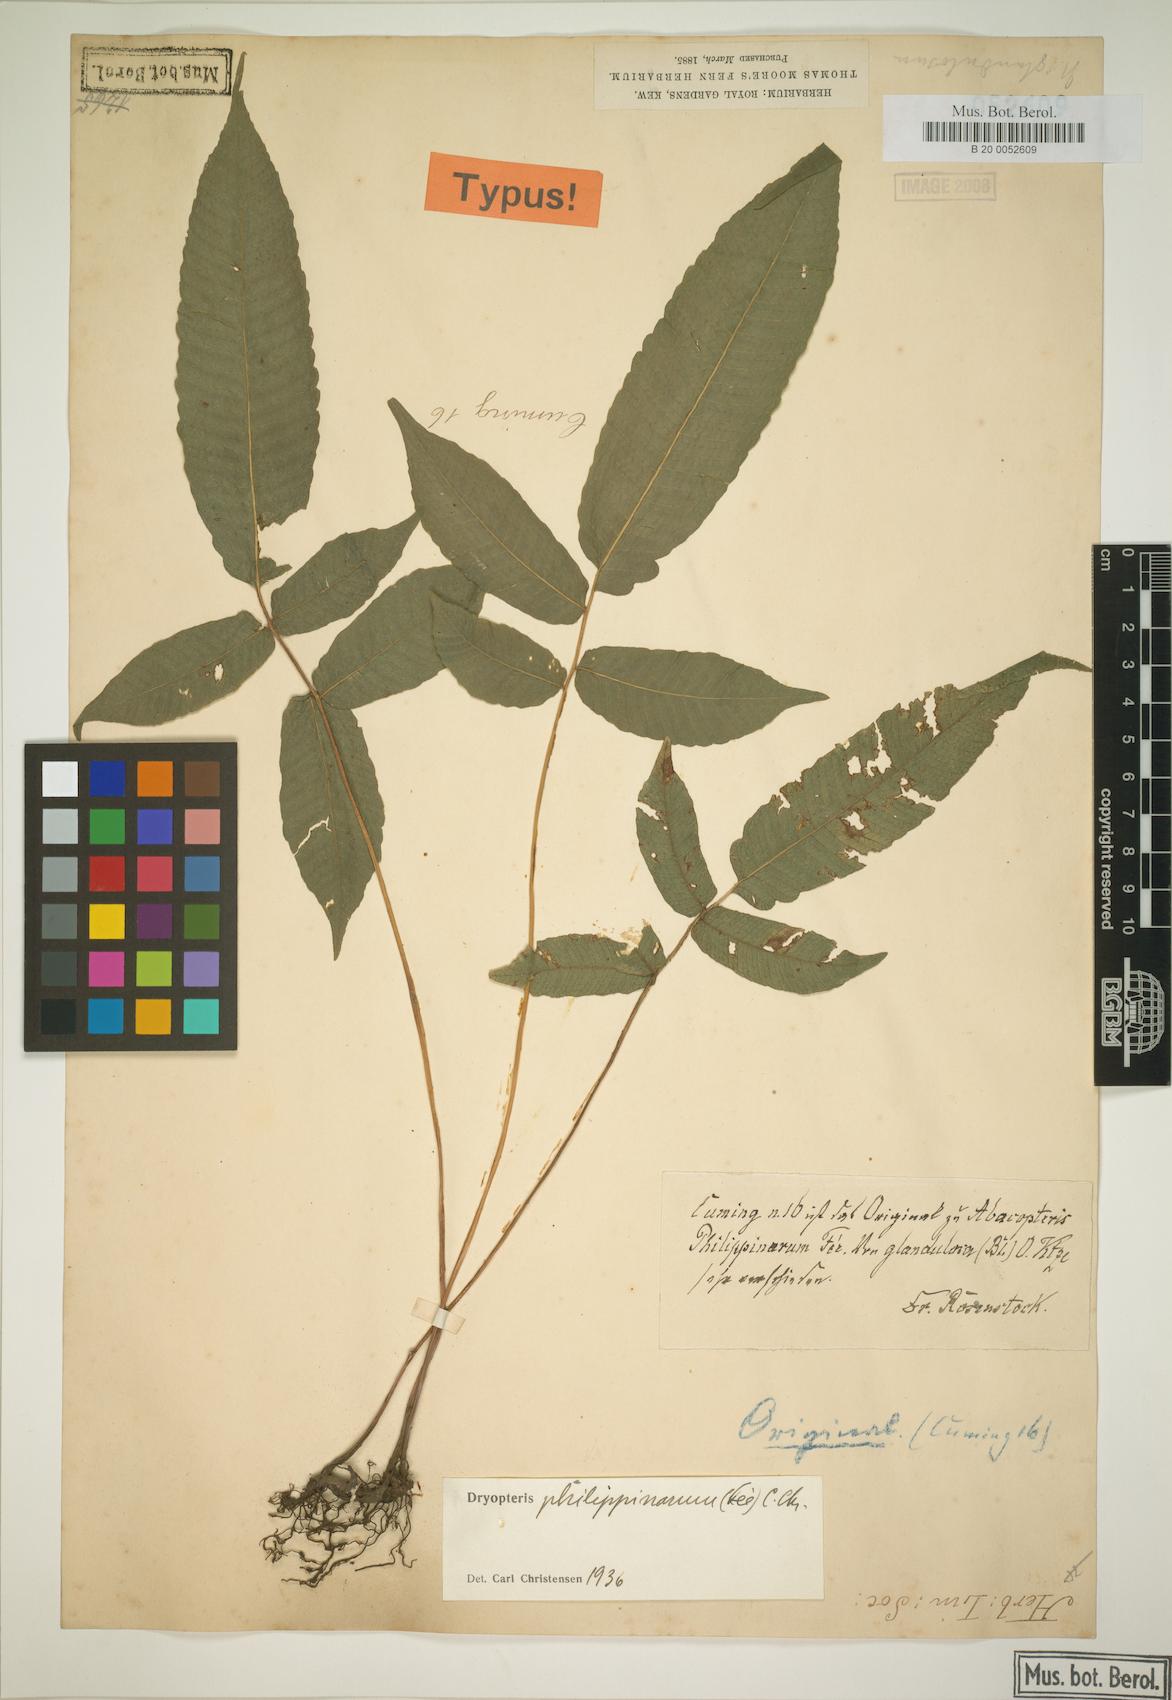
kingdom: Plantae
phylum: Tracheophyta
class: Polypodiopsida
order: Polypodiales
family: Dryopteridaceae
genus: Dryopteris
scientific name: Dryopteris
